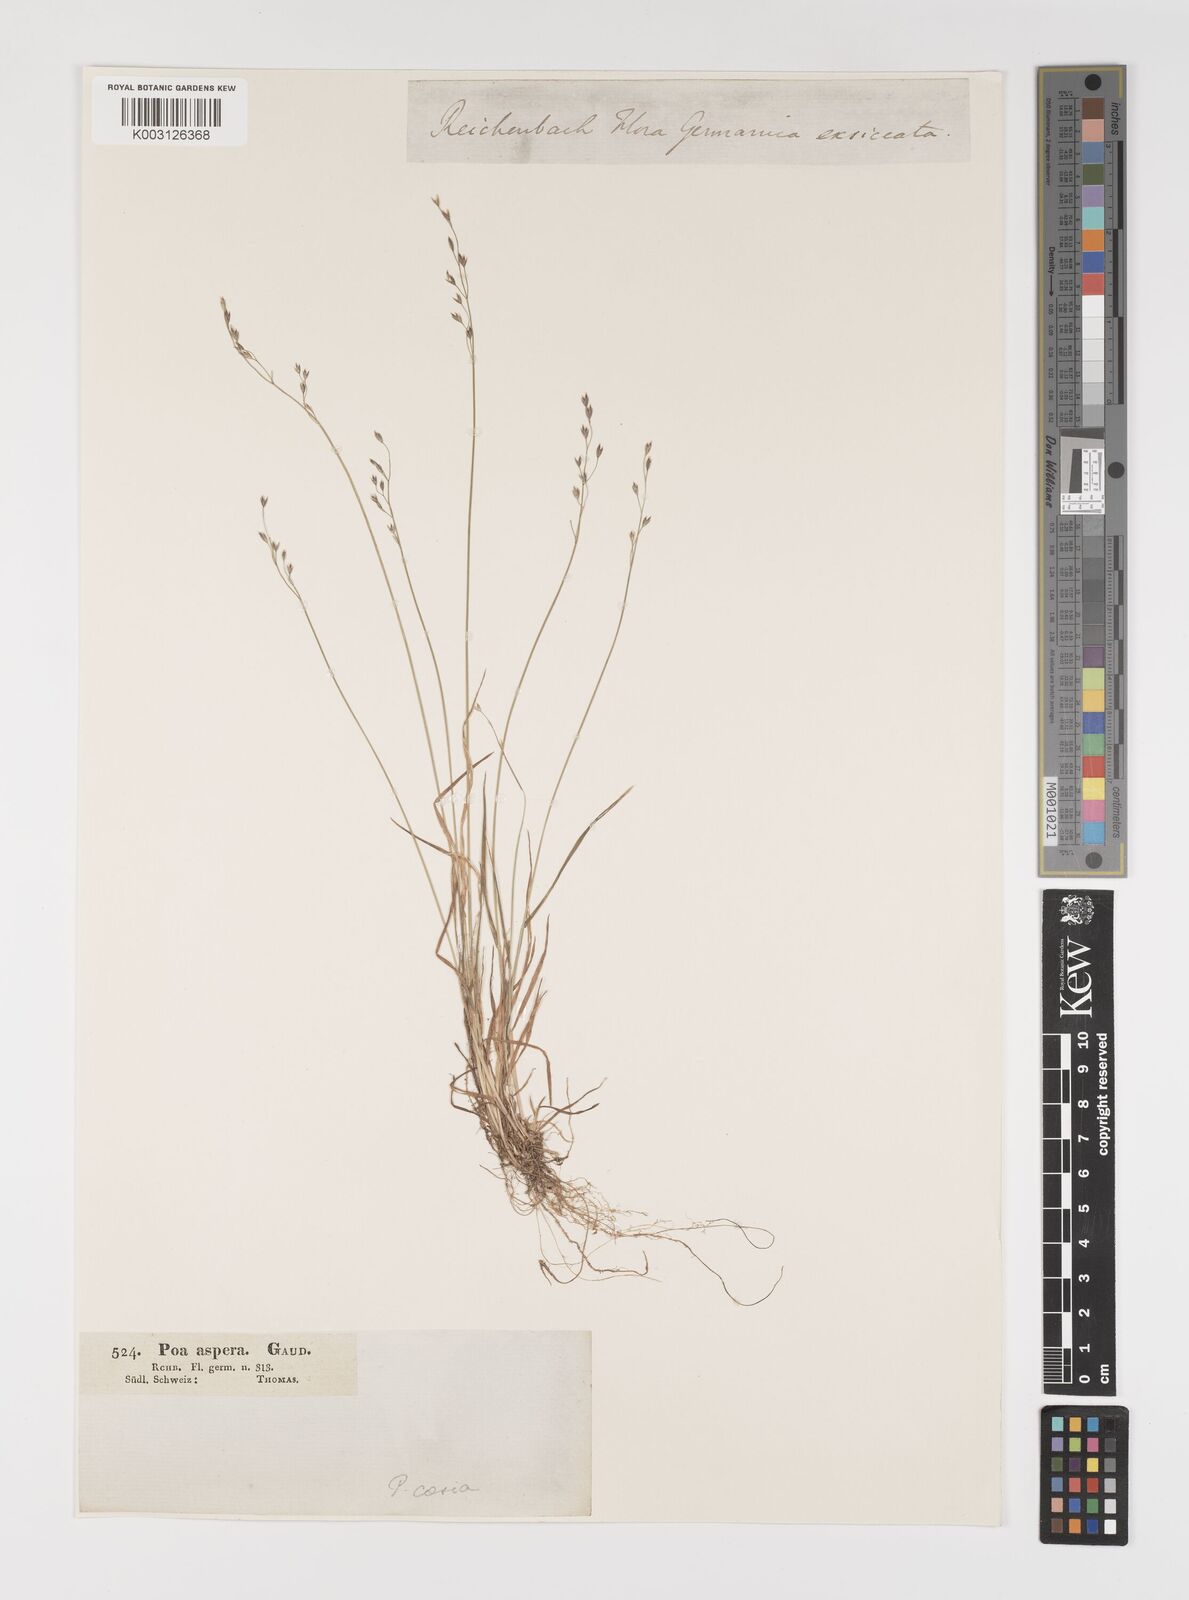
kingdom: Plantae
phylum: Tracheophyta
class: Liliopsida
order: Poales
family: Poaceae
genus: Poa
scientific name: Poa glauca
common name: Glaucous bluegrass
